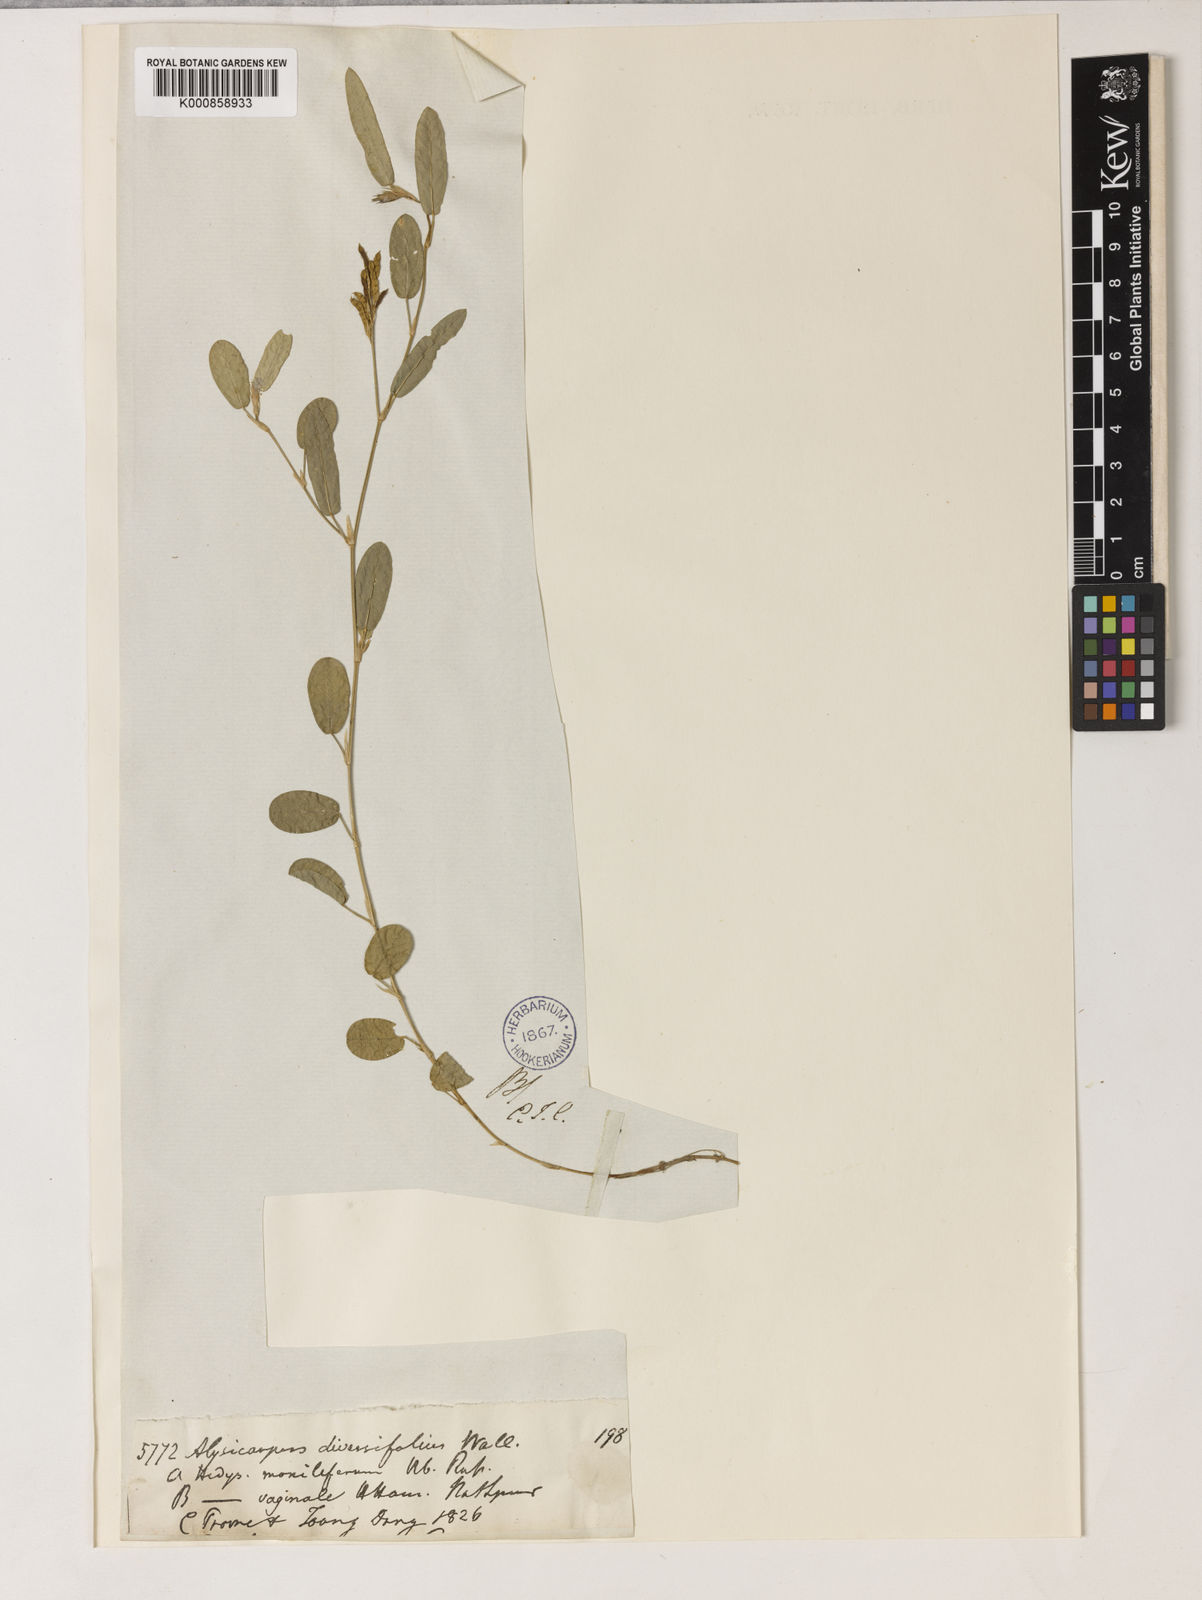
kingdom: Plantae
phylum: Tracheophyta
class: Magnoliopsida
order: Fabales
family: Fabaceae
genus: Alysicarpus
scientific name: Alysicarpus vaginalis
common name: White moneywort
